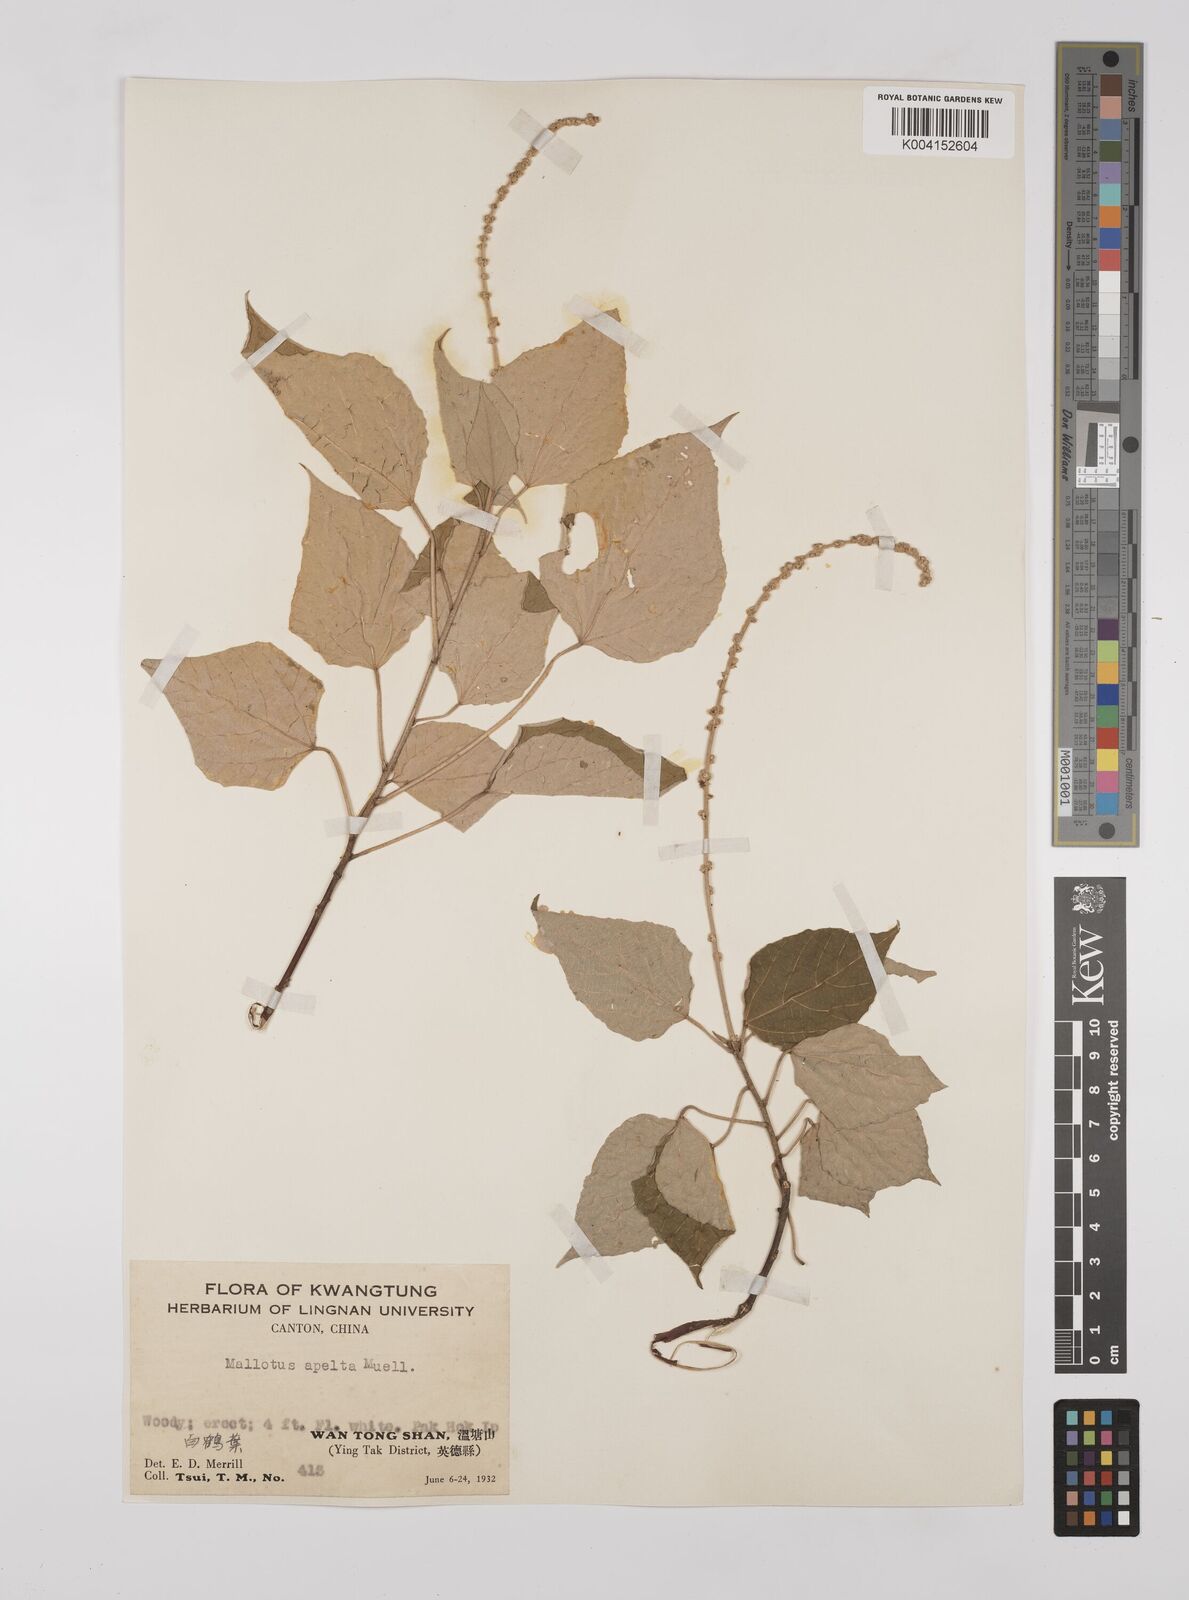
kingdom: Plantae
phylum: Tracheophyta
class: Magnoliopsida
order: Malpighiales
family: Euphorbiaceae
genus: Mallotus
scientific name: Mallotus apelta
